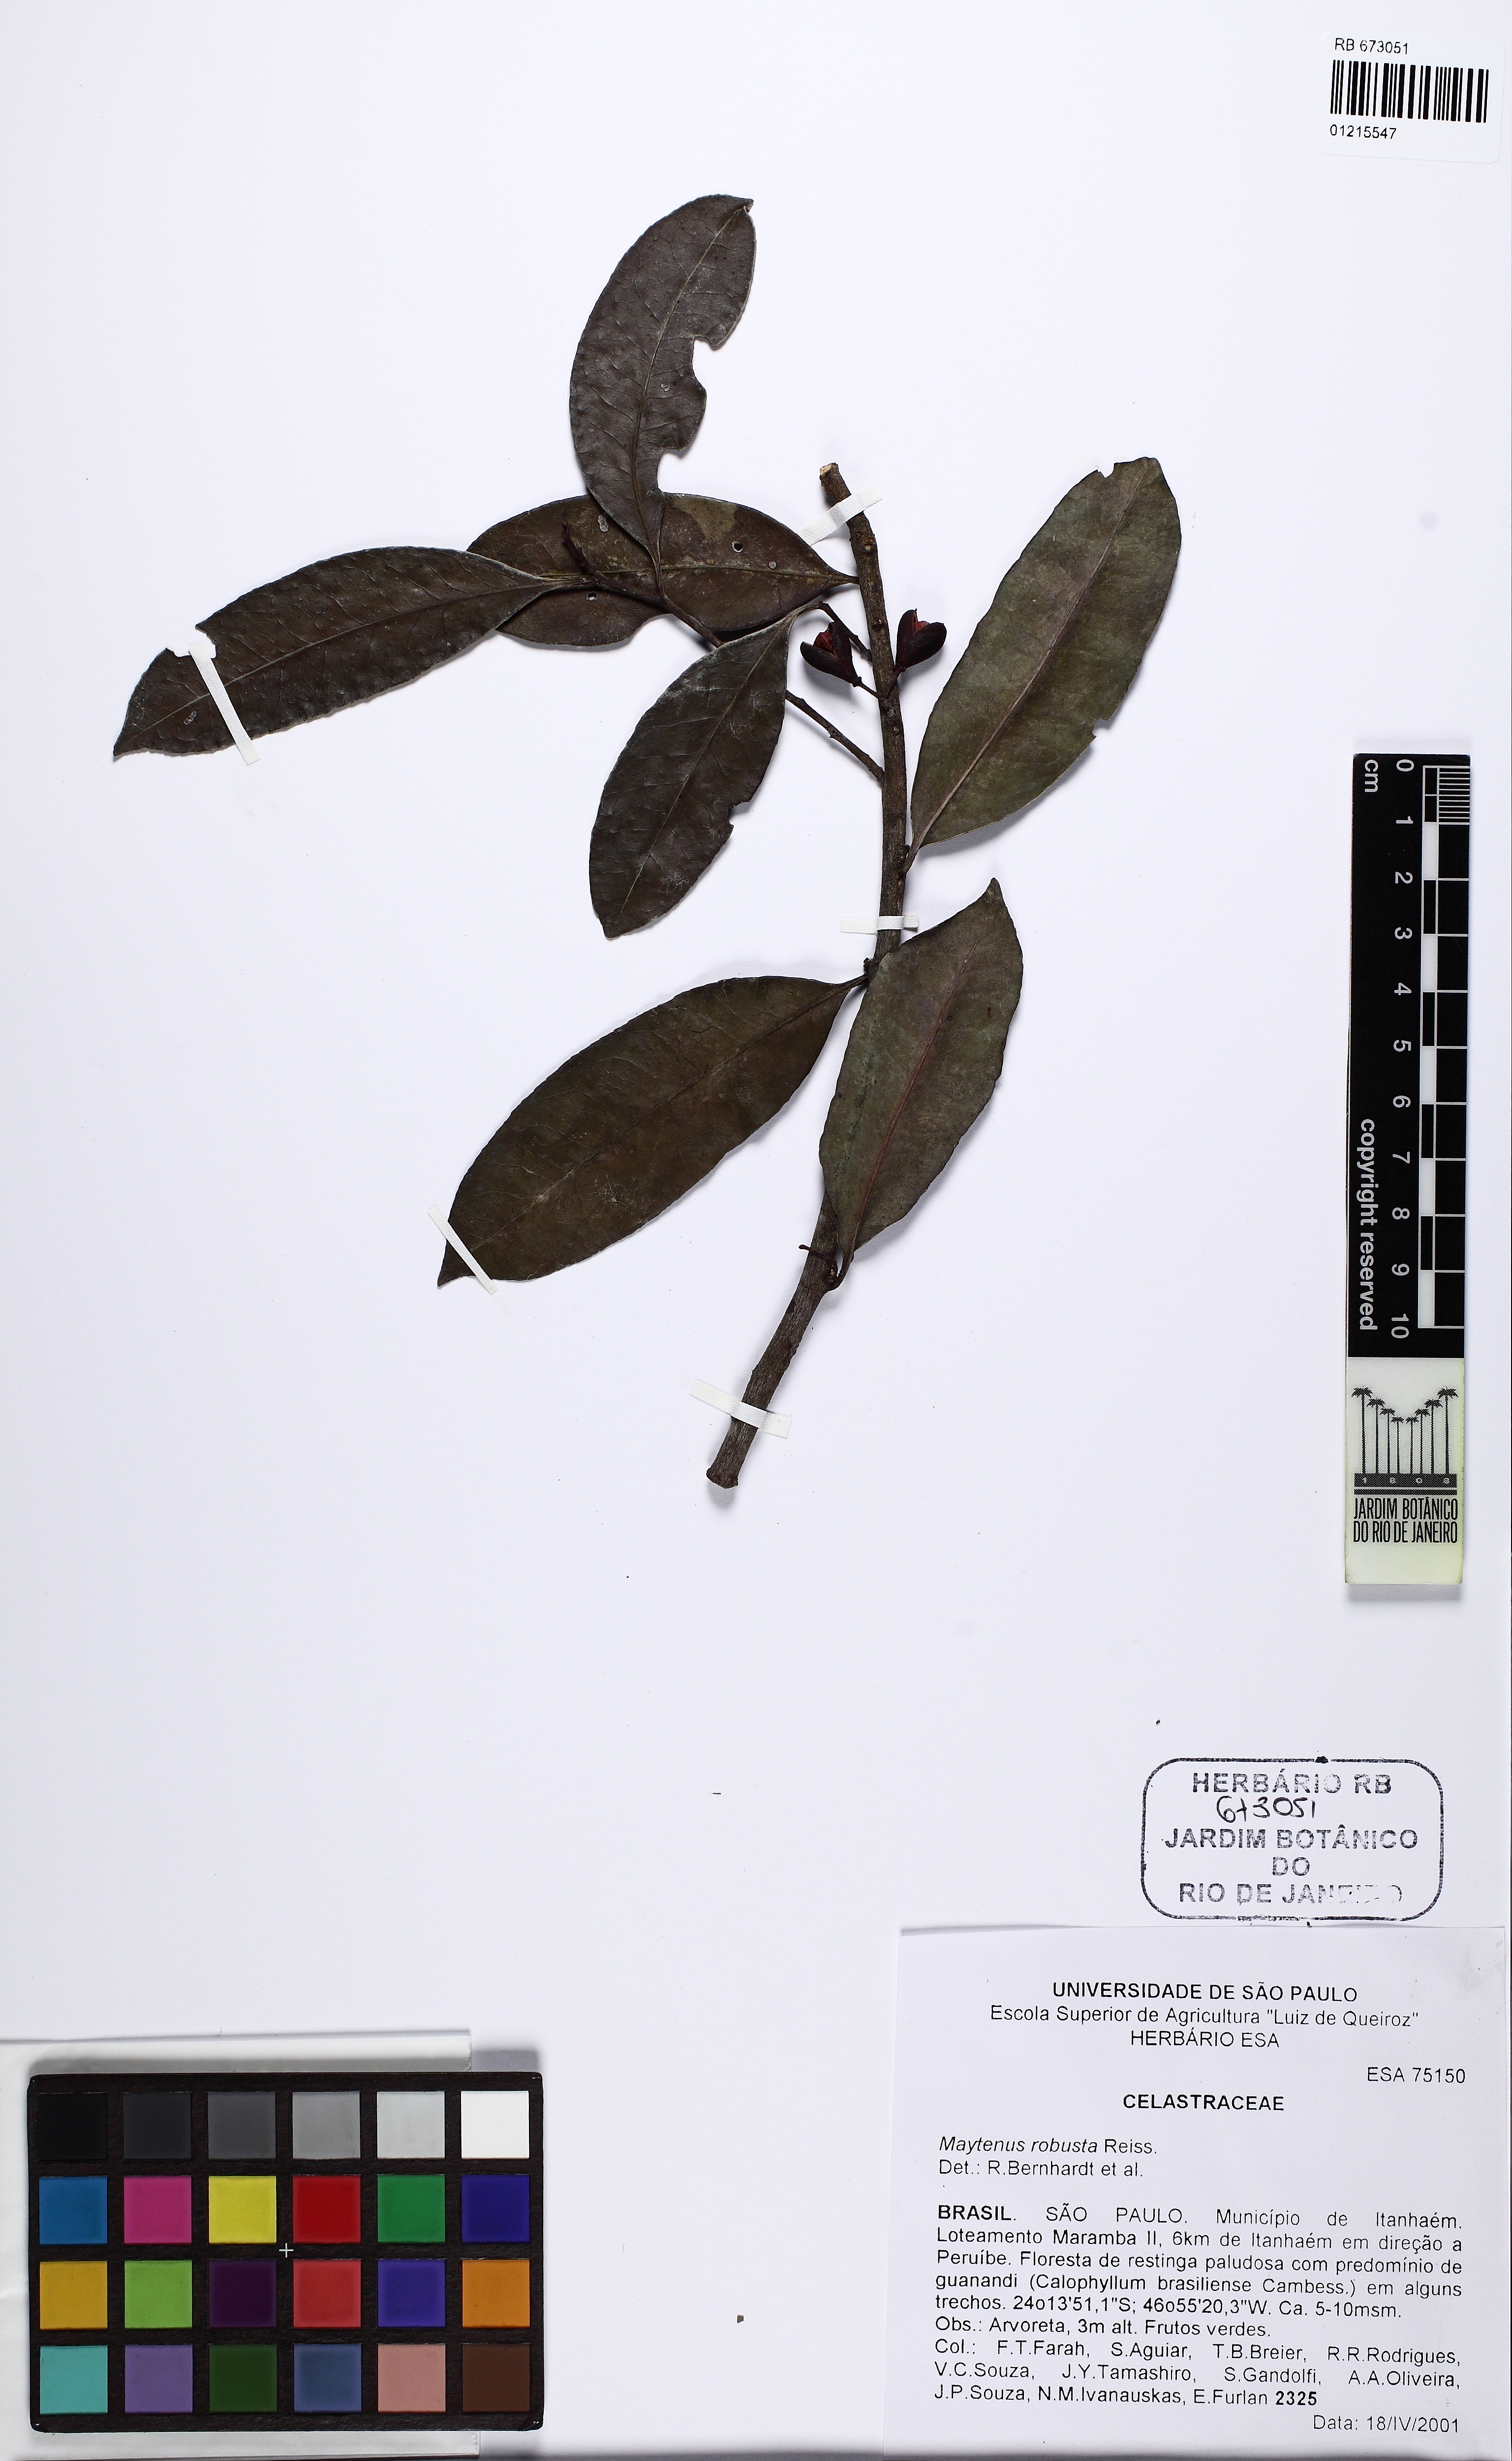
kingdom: Plantae
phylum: Tracheophyta
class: Magnoliopsida
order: Celastrales
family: Celastraceae
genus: Monteverdia
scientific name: Monteverdia robusta
